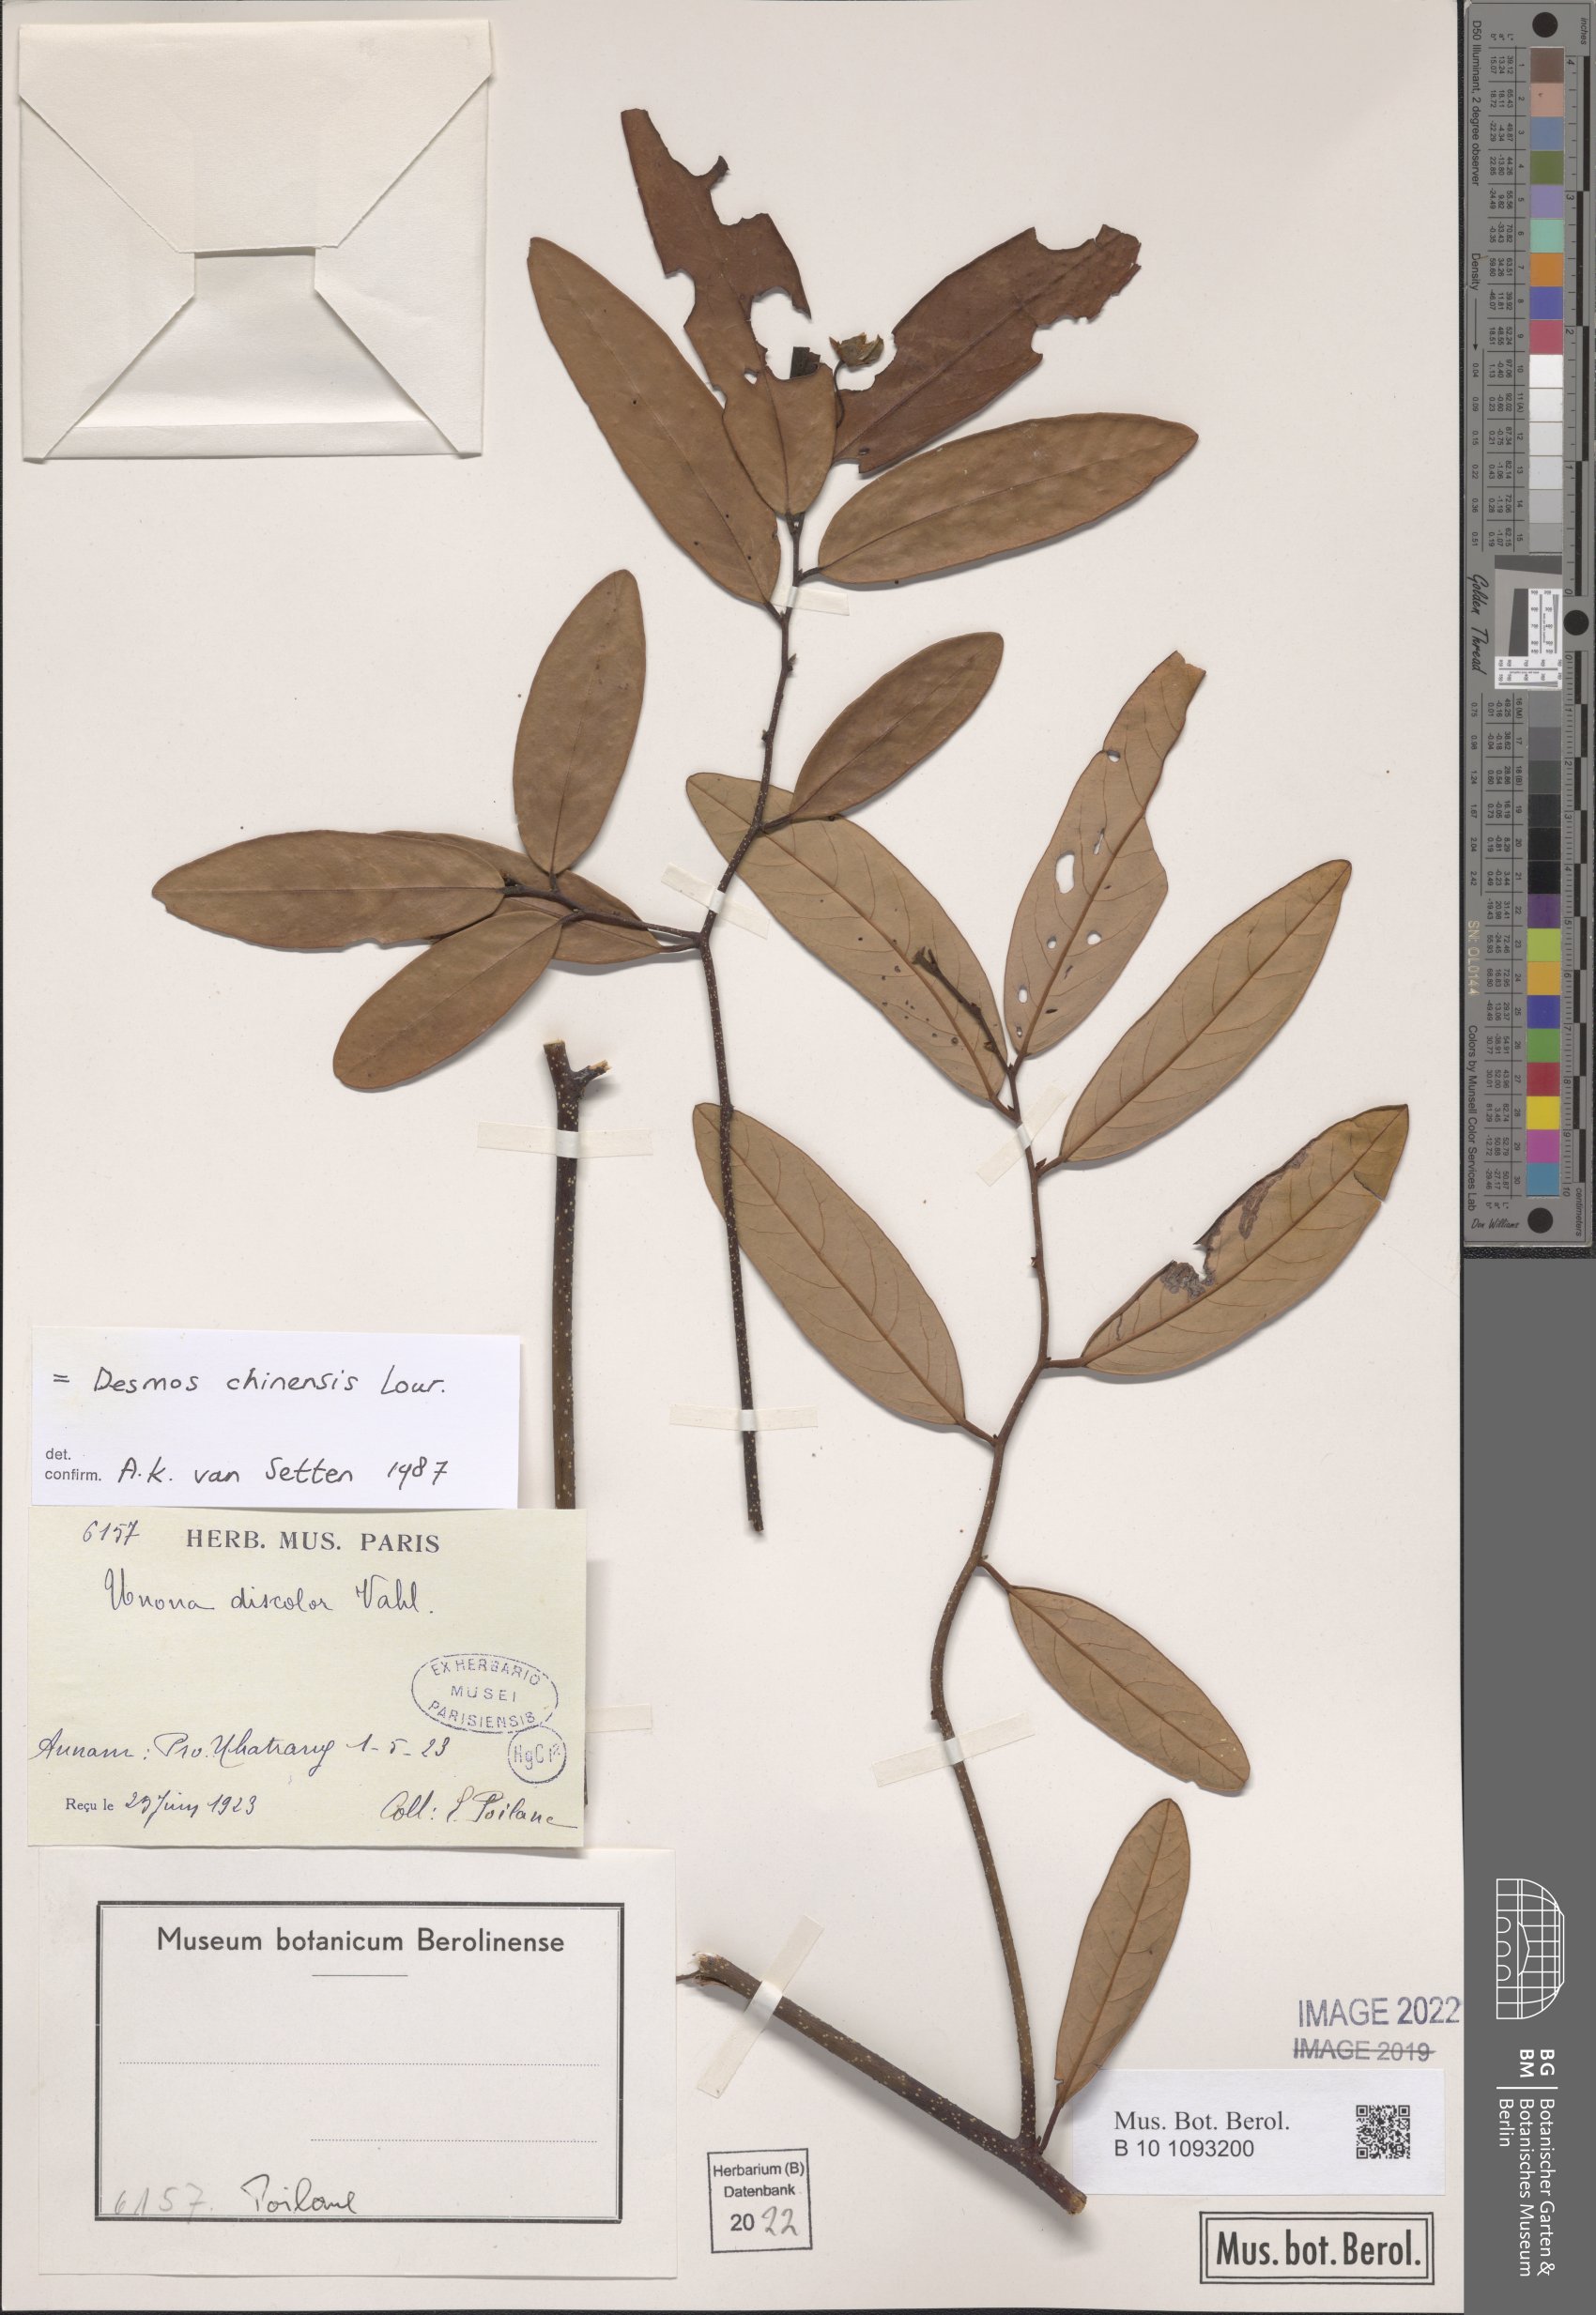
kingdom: Plantae
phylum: Tracheophyta
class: Magnoliopsida
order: Magnoliales
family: Annonaceae
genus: Desmos
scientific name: Desmos chinensis
